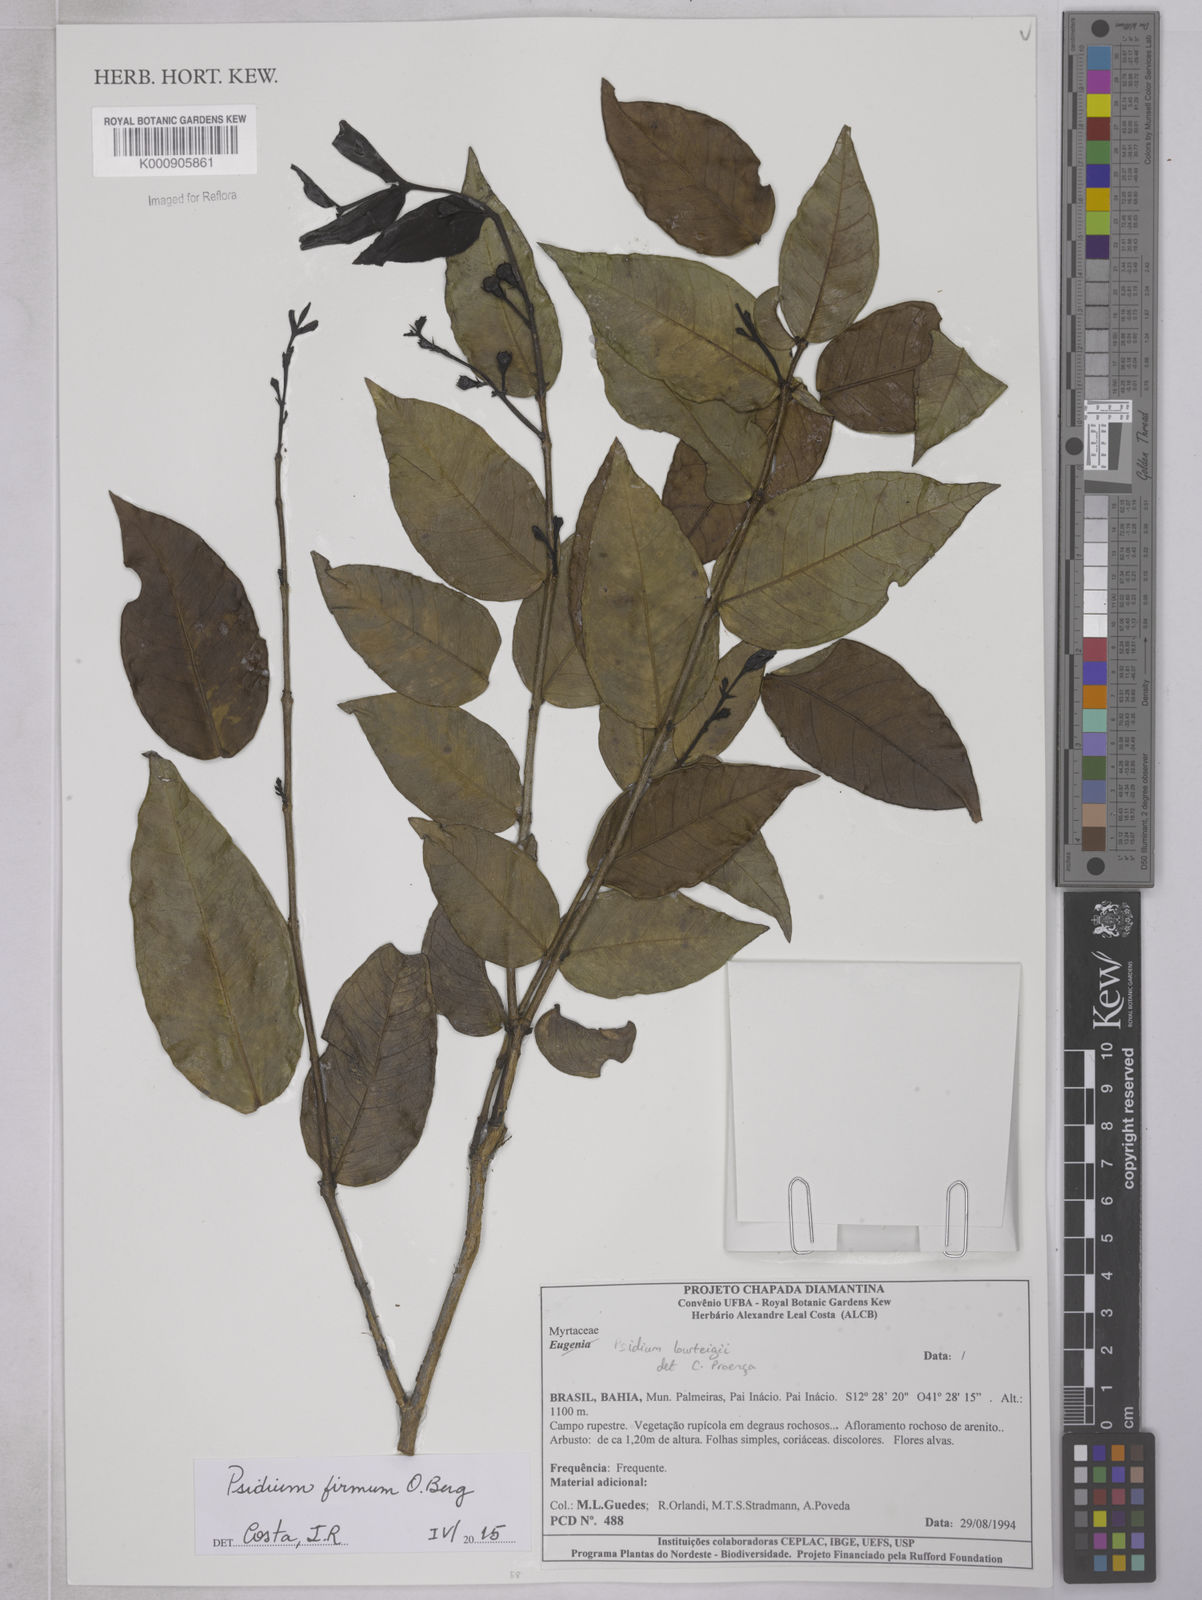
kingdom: Plantae
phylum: Tracheophyta
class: Magnoliopsida
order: Myrtales
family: Myrtaceae
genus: Psidium
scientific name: Psidium firmum
